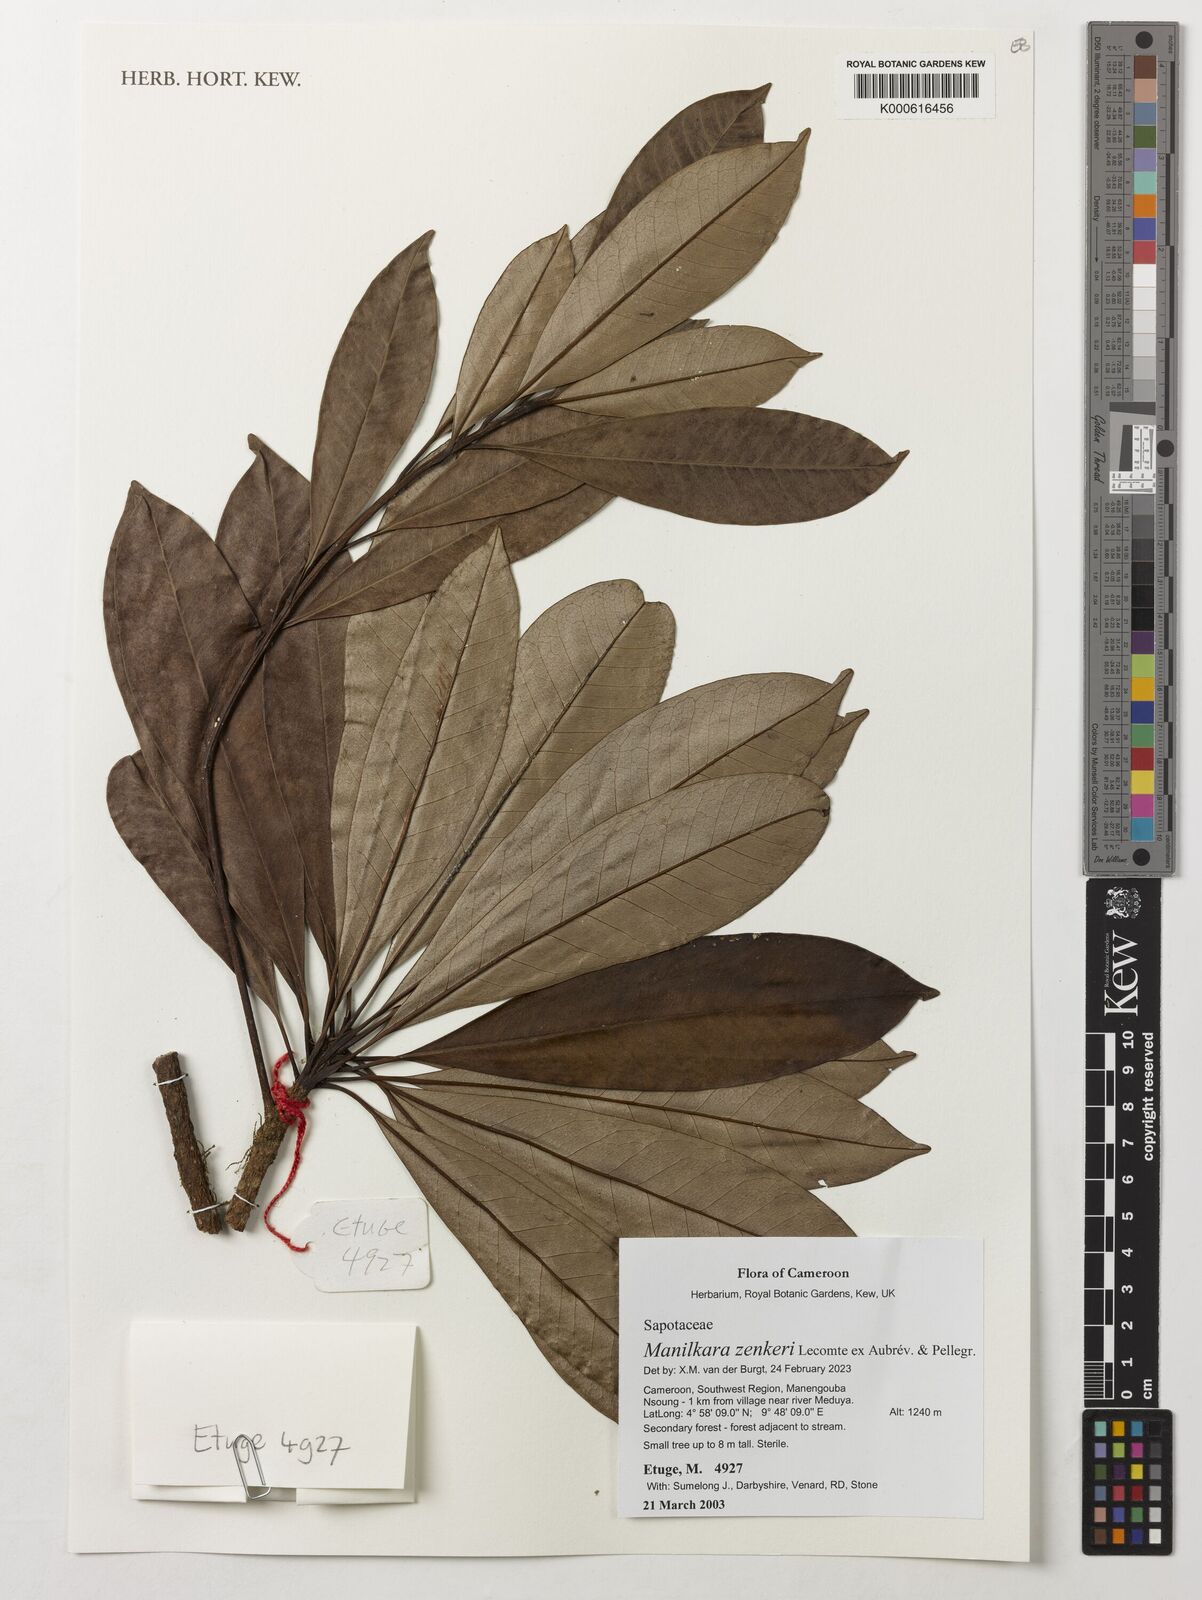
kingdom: Plantae
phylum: Tracheophyta
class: Magnoliopsida
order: Ericales
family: Sapotaceae
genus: Manilkara
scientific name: Manilkara zenkeri
